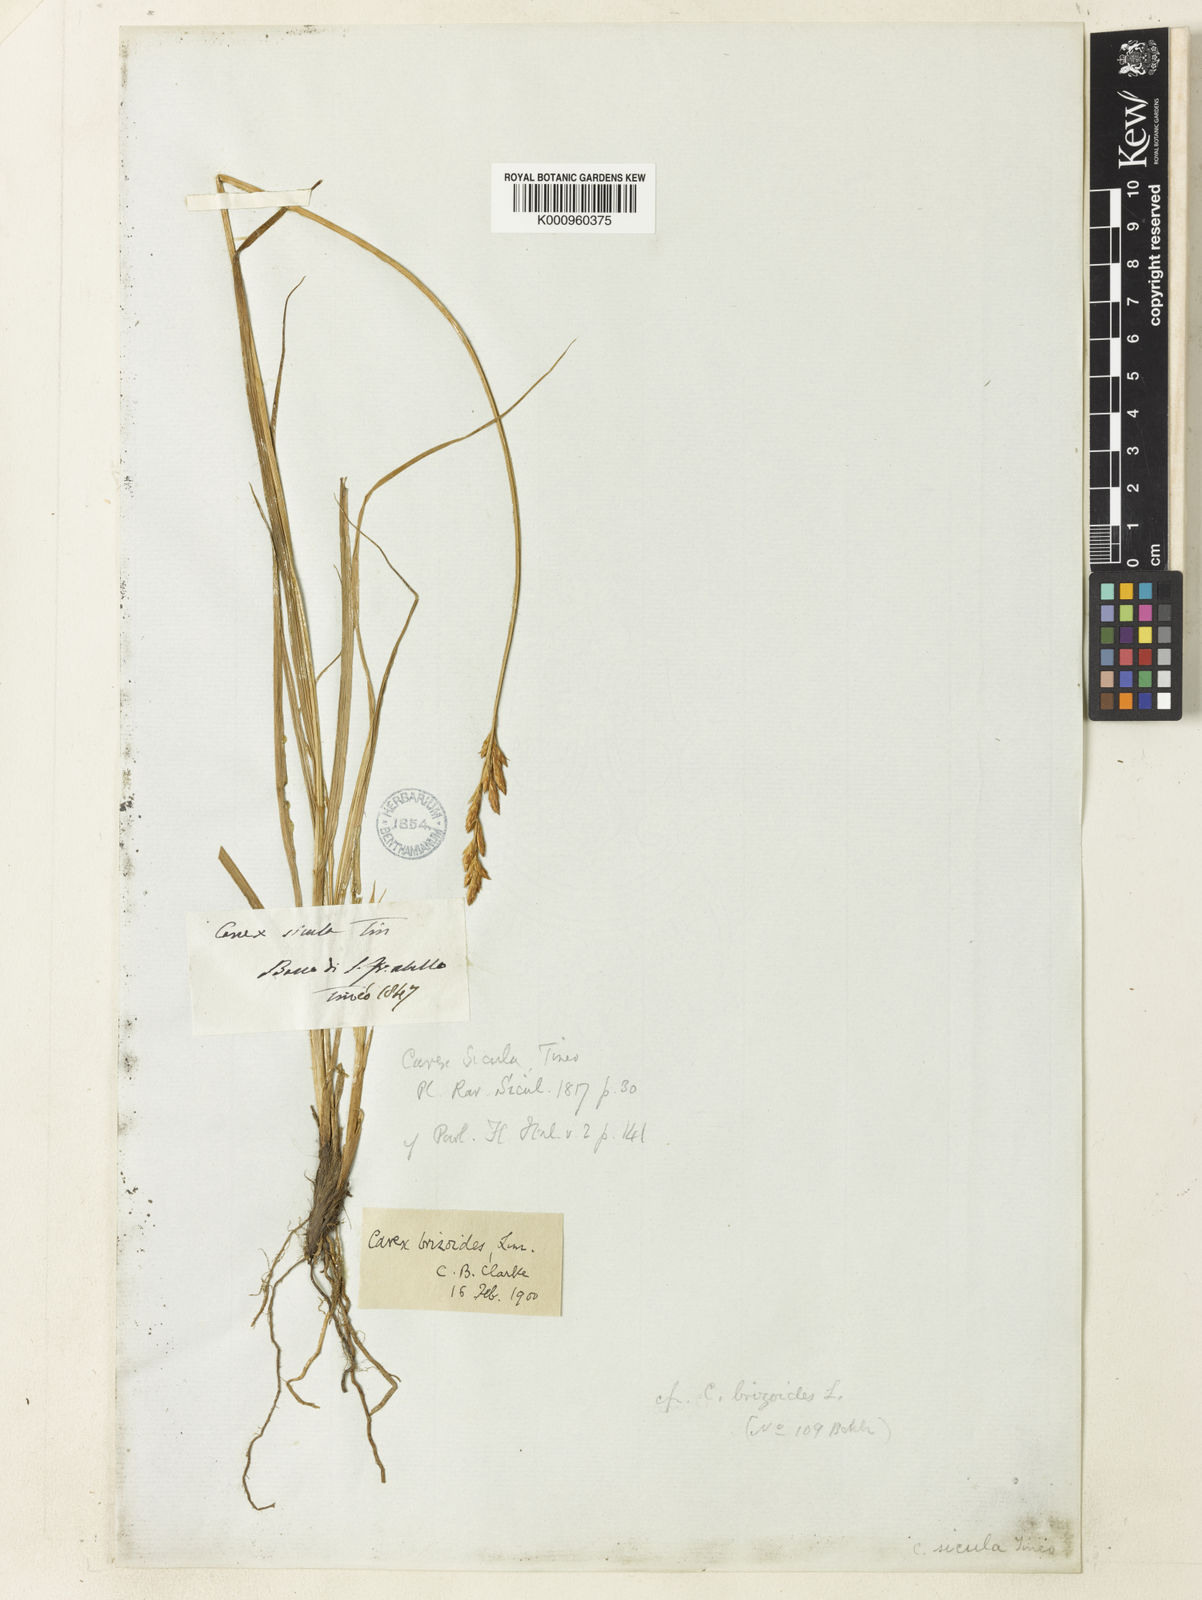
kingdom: Plantae
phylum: Tracheophyta
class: Liliopsida
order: Poales
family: Cyperaceae
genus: Carex
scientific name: Carex leporina
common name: Oval sedge
